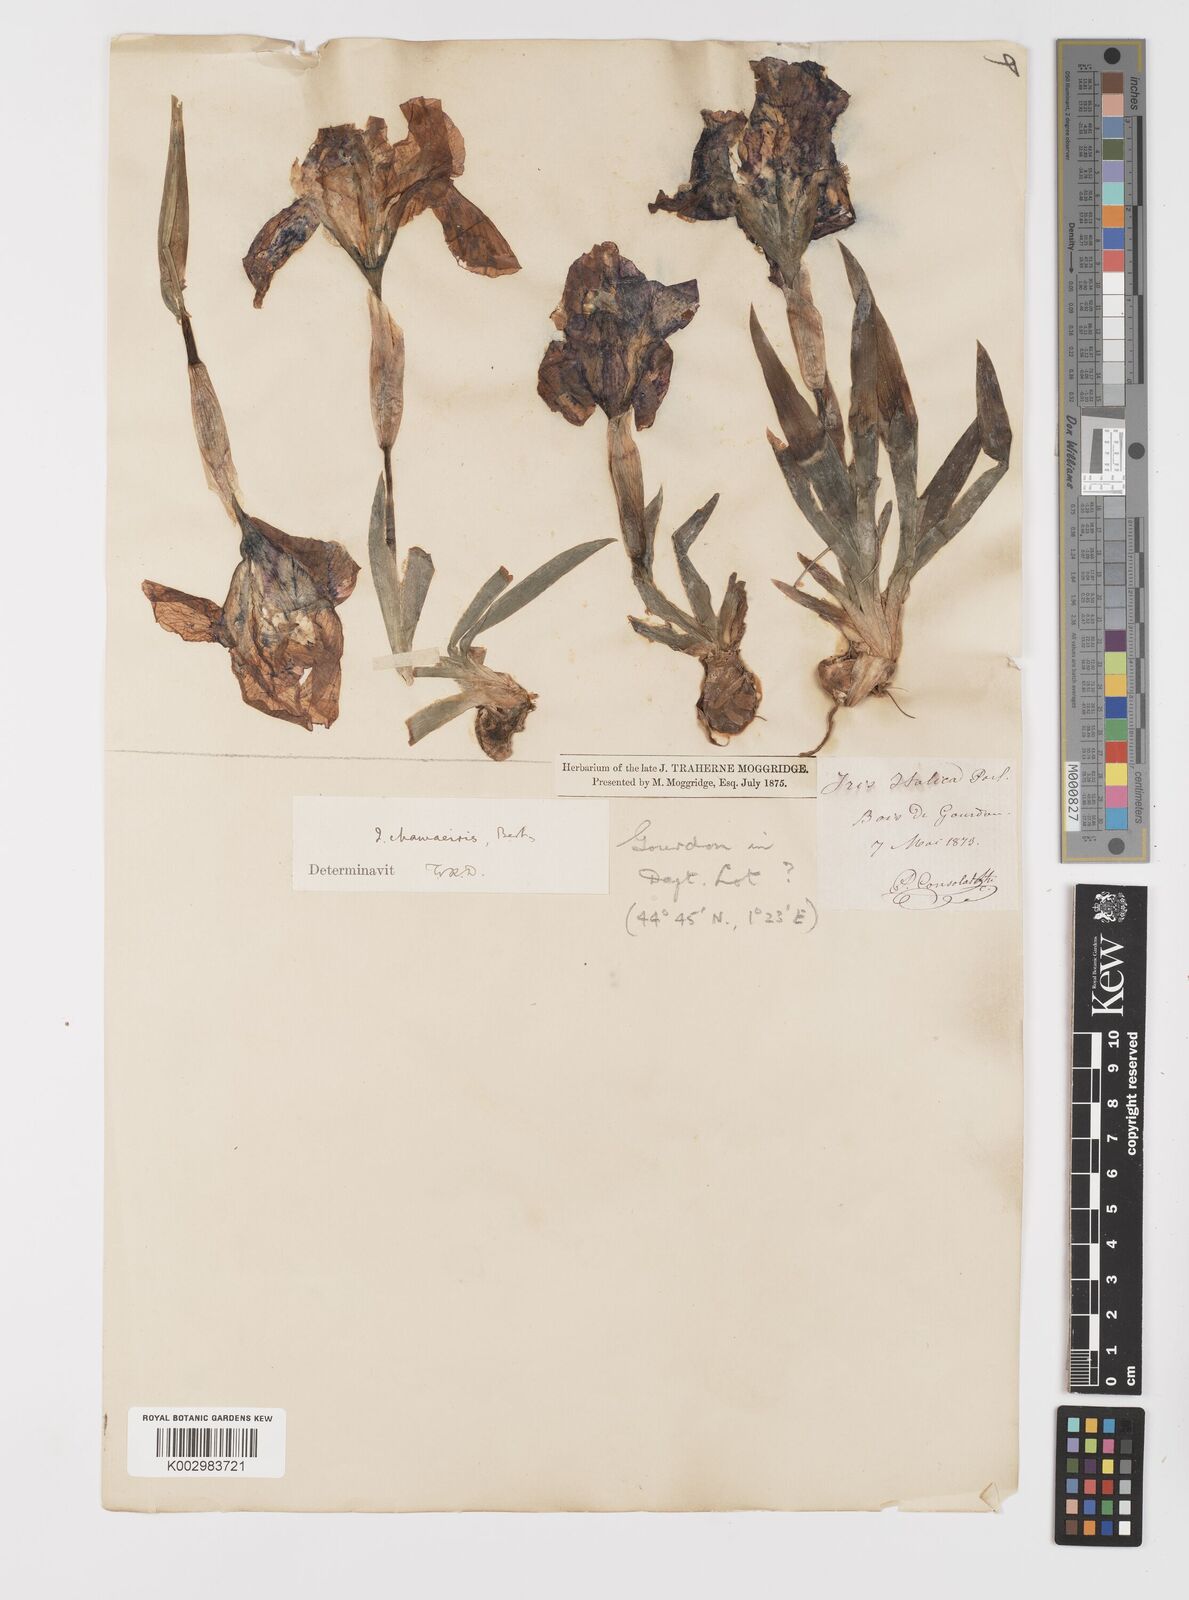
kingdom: Plantae
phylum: Tracheophyta
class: Liliopsida
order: Asparagales
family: Iridaceae
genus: Iris
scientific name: Iris lutescens
